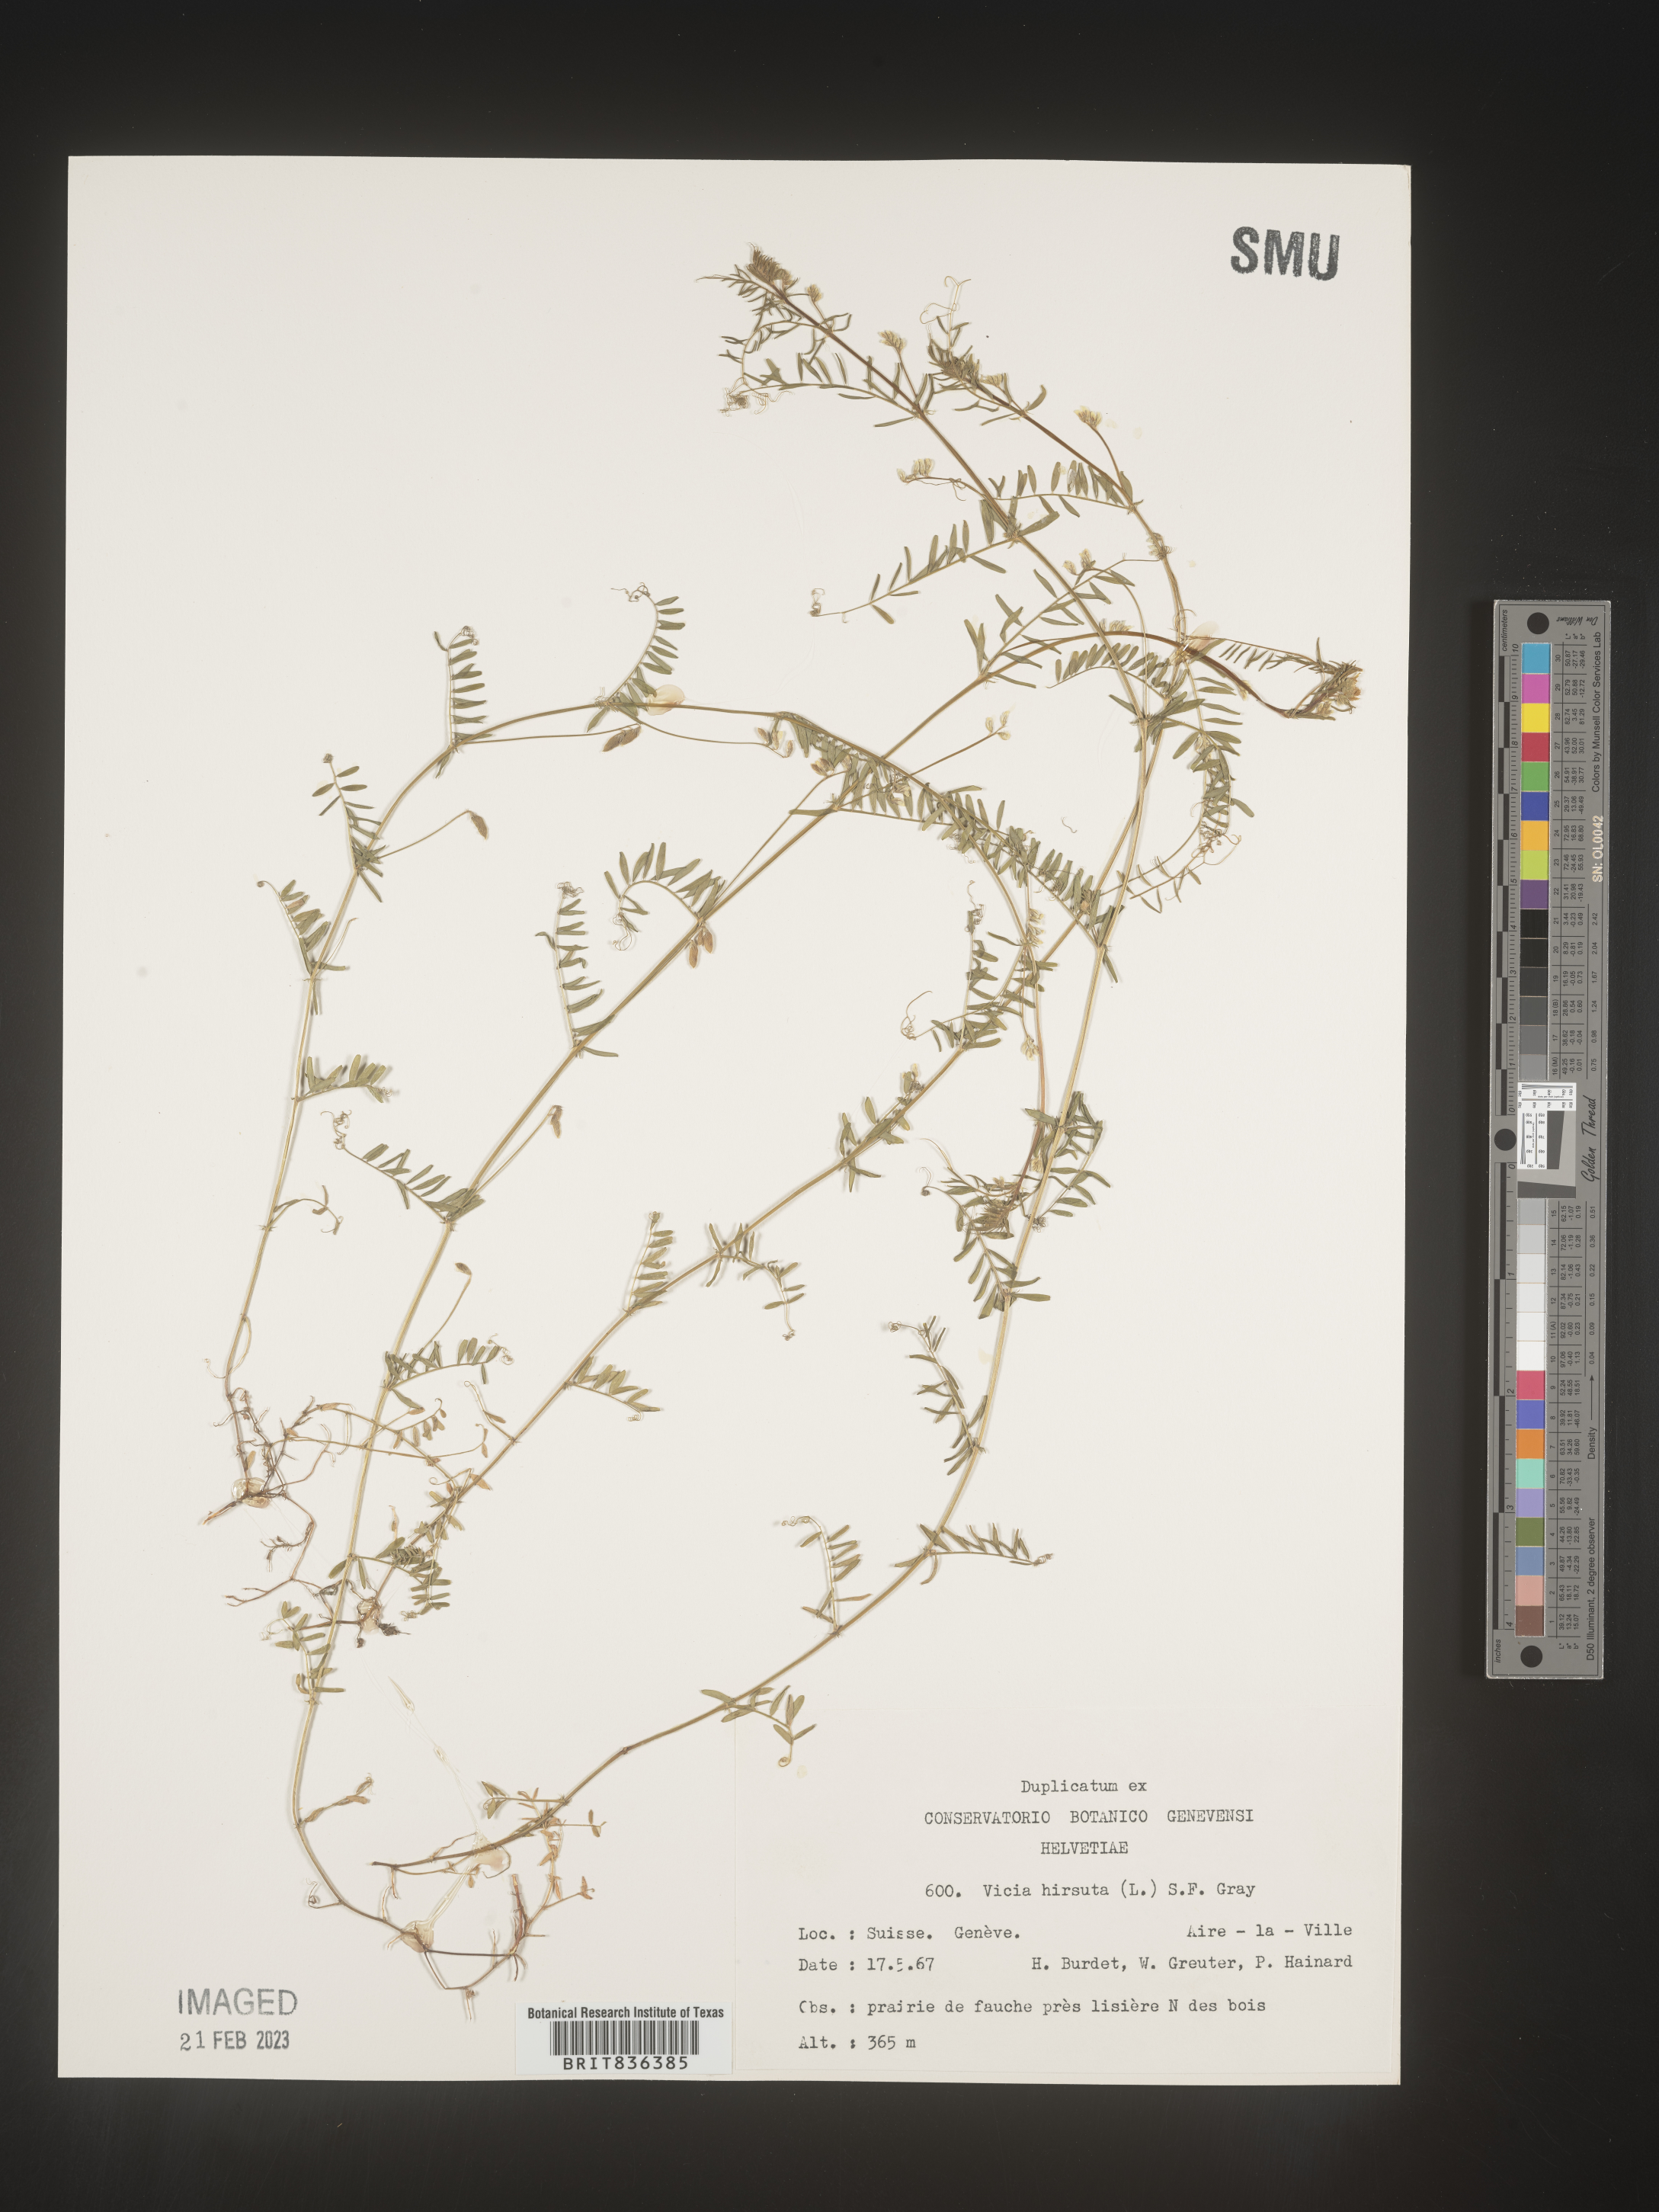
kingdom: Plantae
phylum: Tracheophyta
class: Magnoliopsida
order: Fabales
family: Fabaceae
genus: Vicia
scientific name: Vicia
